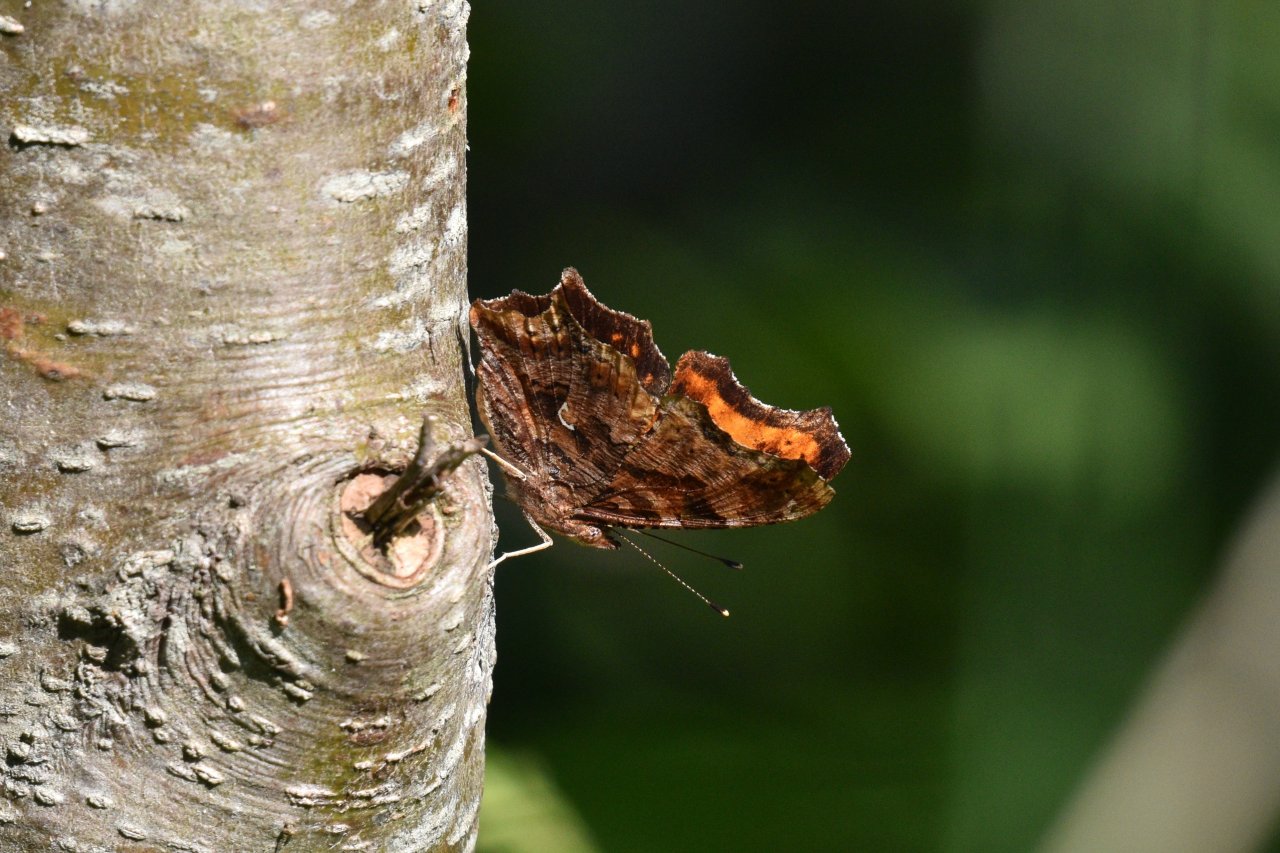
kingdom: Animalia
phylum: Arthropoda
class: Insecta
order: Lepidoptera
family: Nymphalidae
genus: Polygonia
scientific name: Polygonia comma
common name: Eastern Comma
